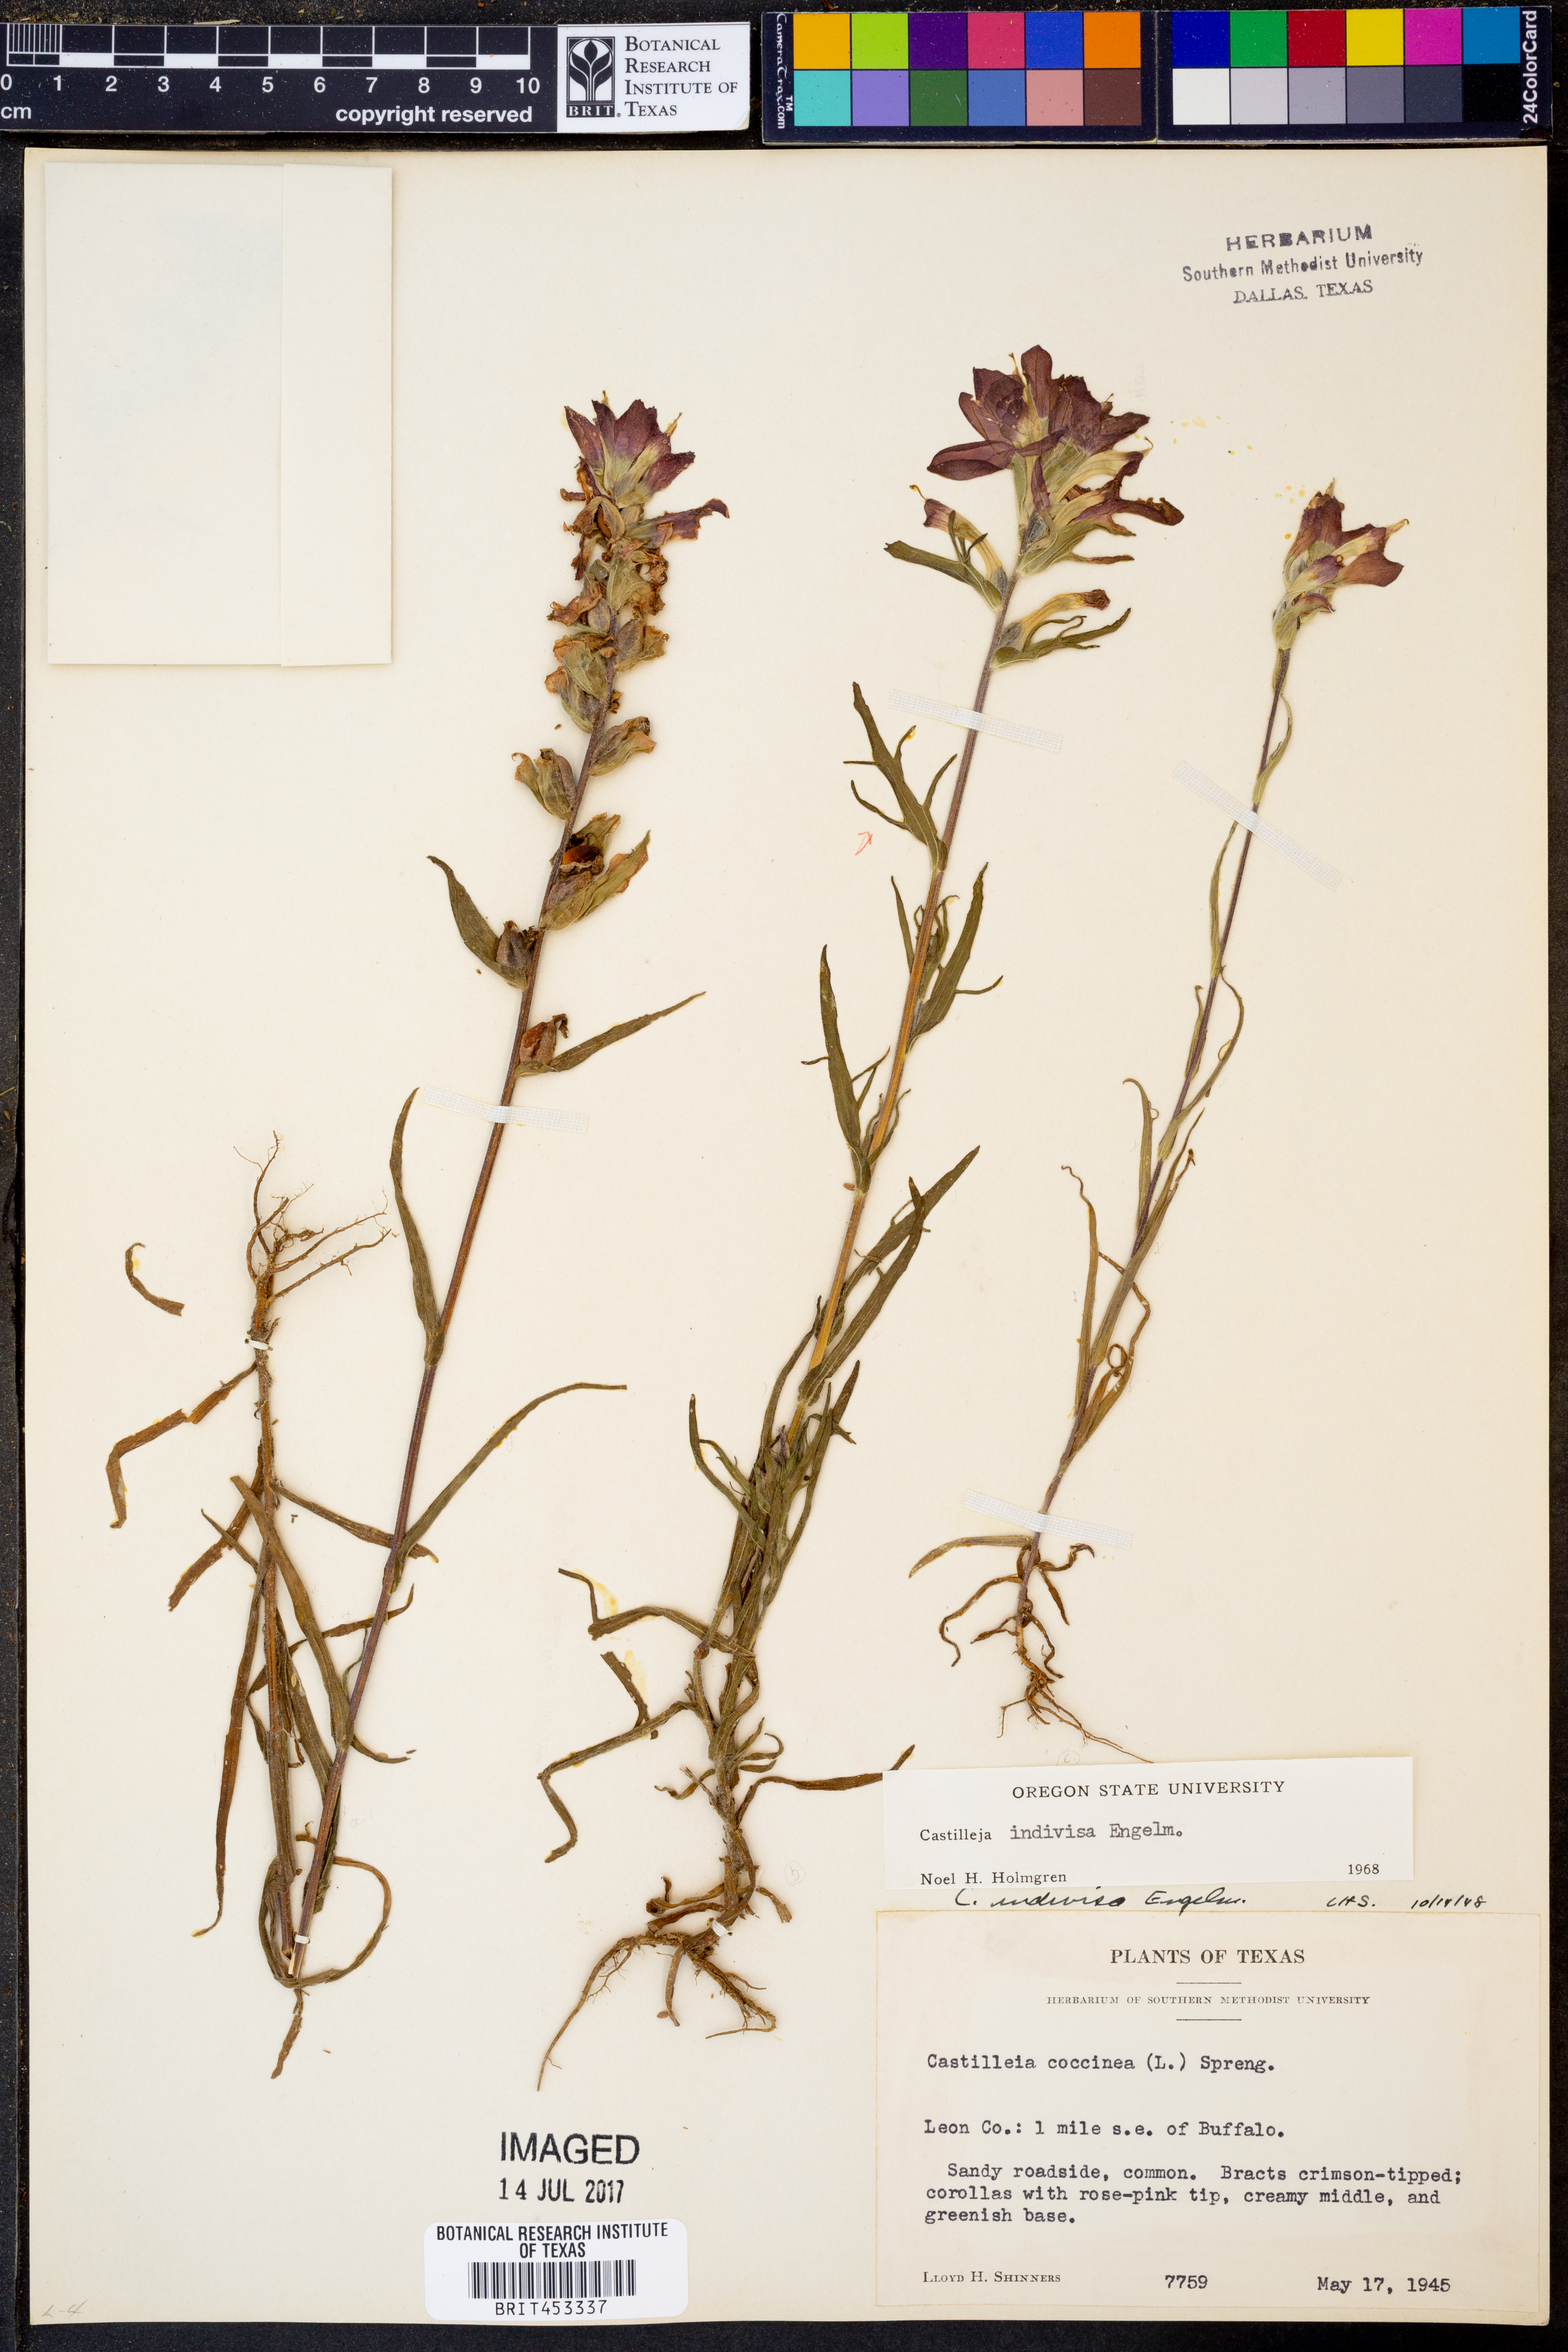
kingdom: Plantae
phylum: Tracheophyta
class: Magnoliopsida
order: Lamiales
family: Orobanchaceae
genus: Castilleja
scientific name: Castilleja indivisa
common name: Texas paintbrush
